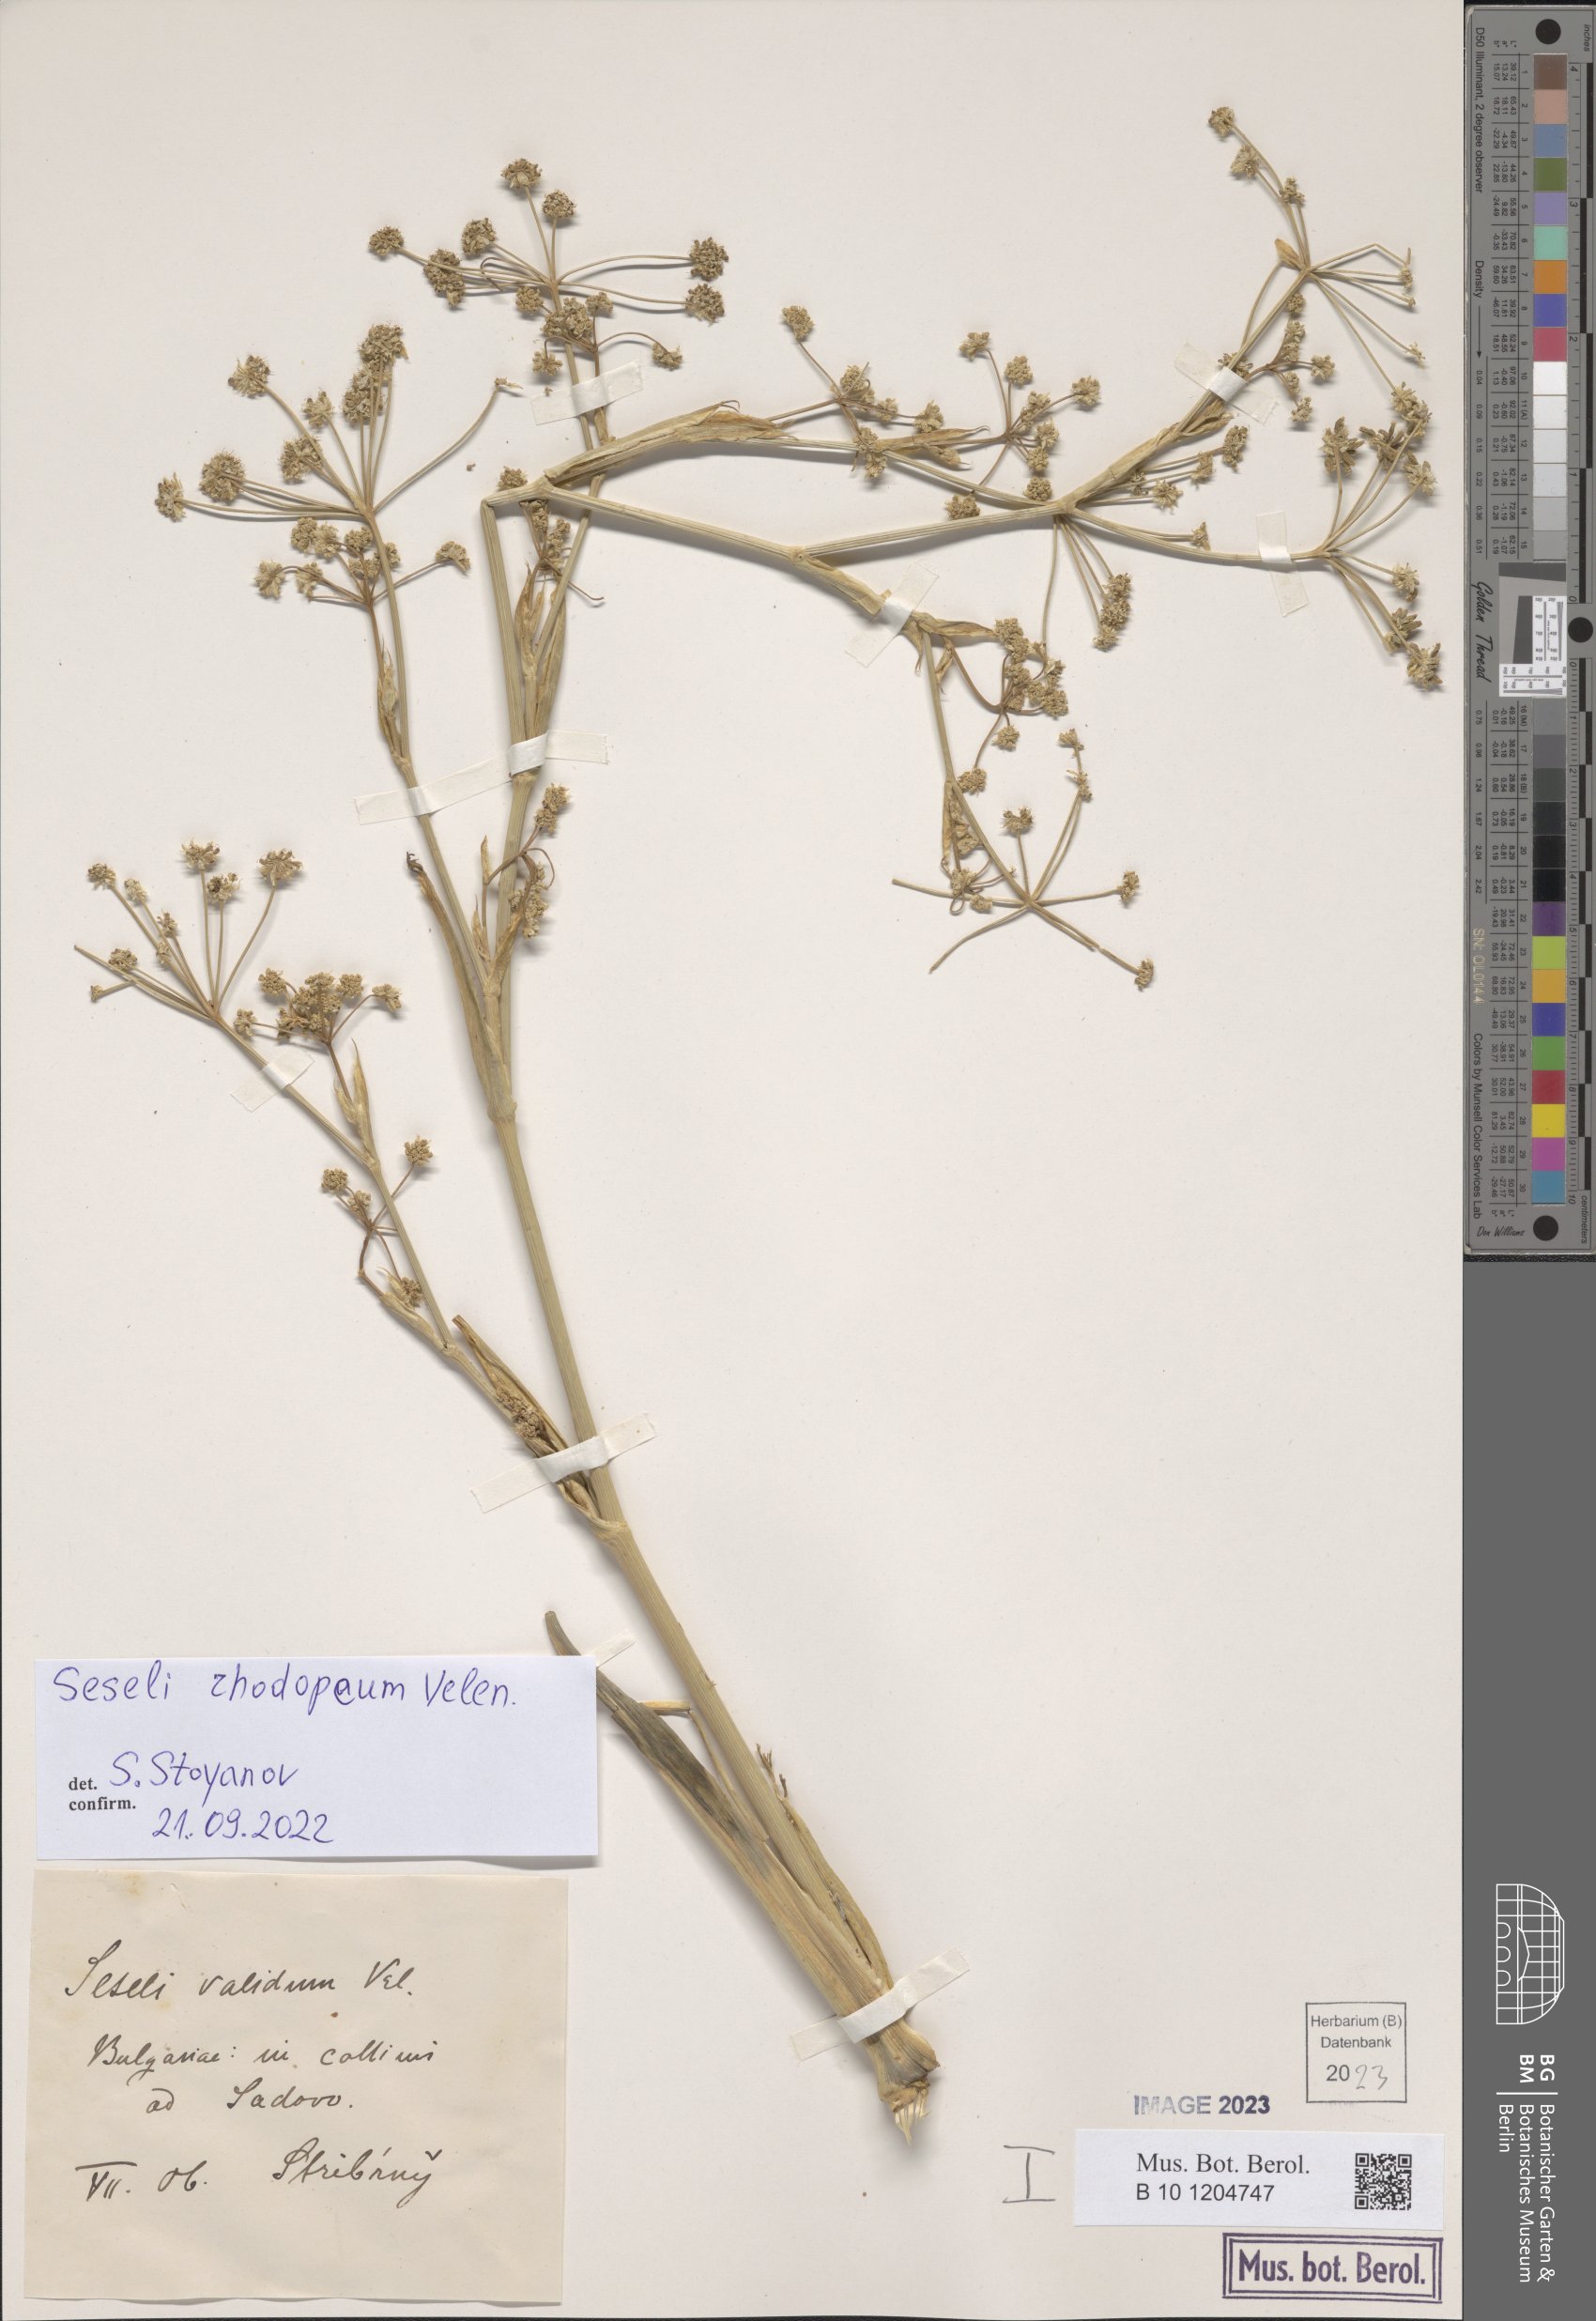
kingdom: Plantae
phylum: Tracheophyta
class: Magnoliopsida
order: Apiales
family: Apiaceae
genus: Seseli
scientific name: Seseli rhodopeum
